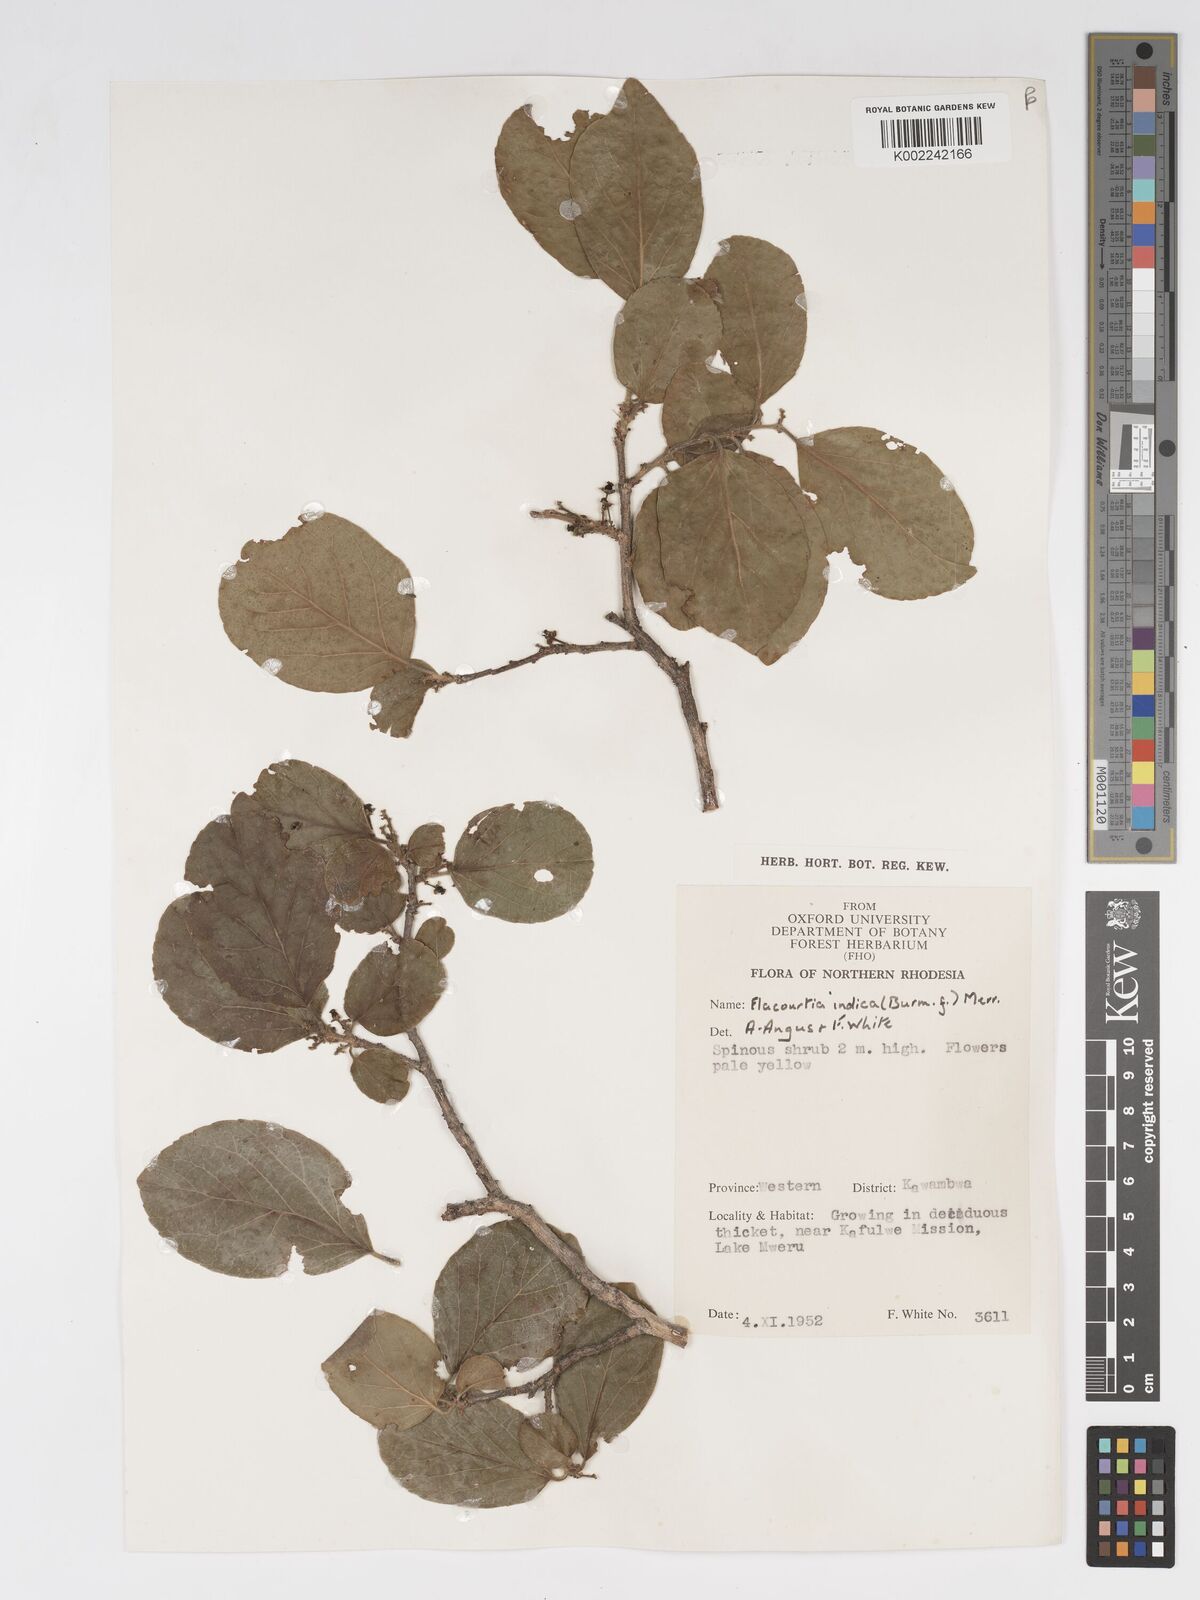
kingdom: Plantae
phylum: Tracheophyta
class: Magnoliopsida
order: Malpighiales
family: Salicaceae
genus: Flacourtia
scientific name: Flacourtia indica
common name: Governor's plum
